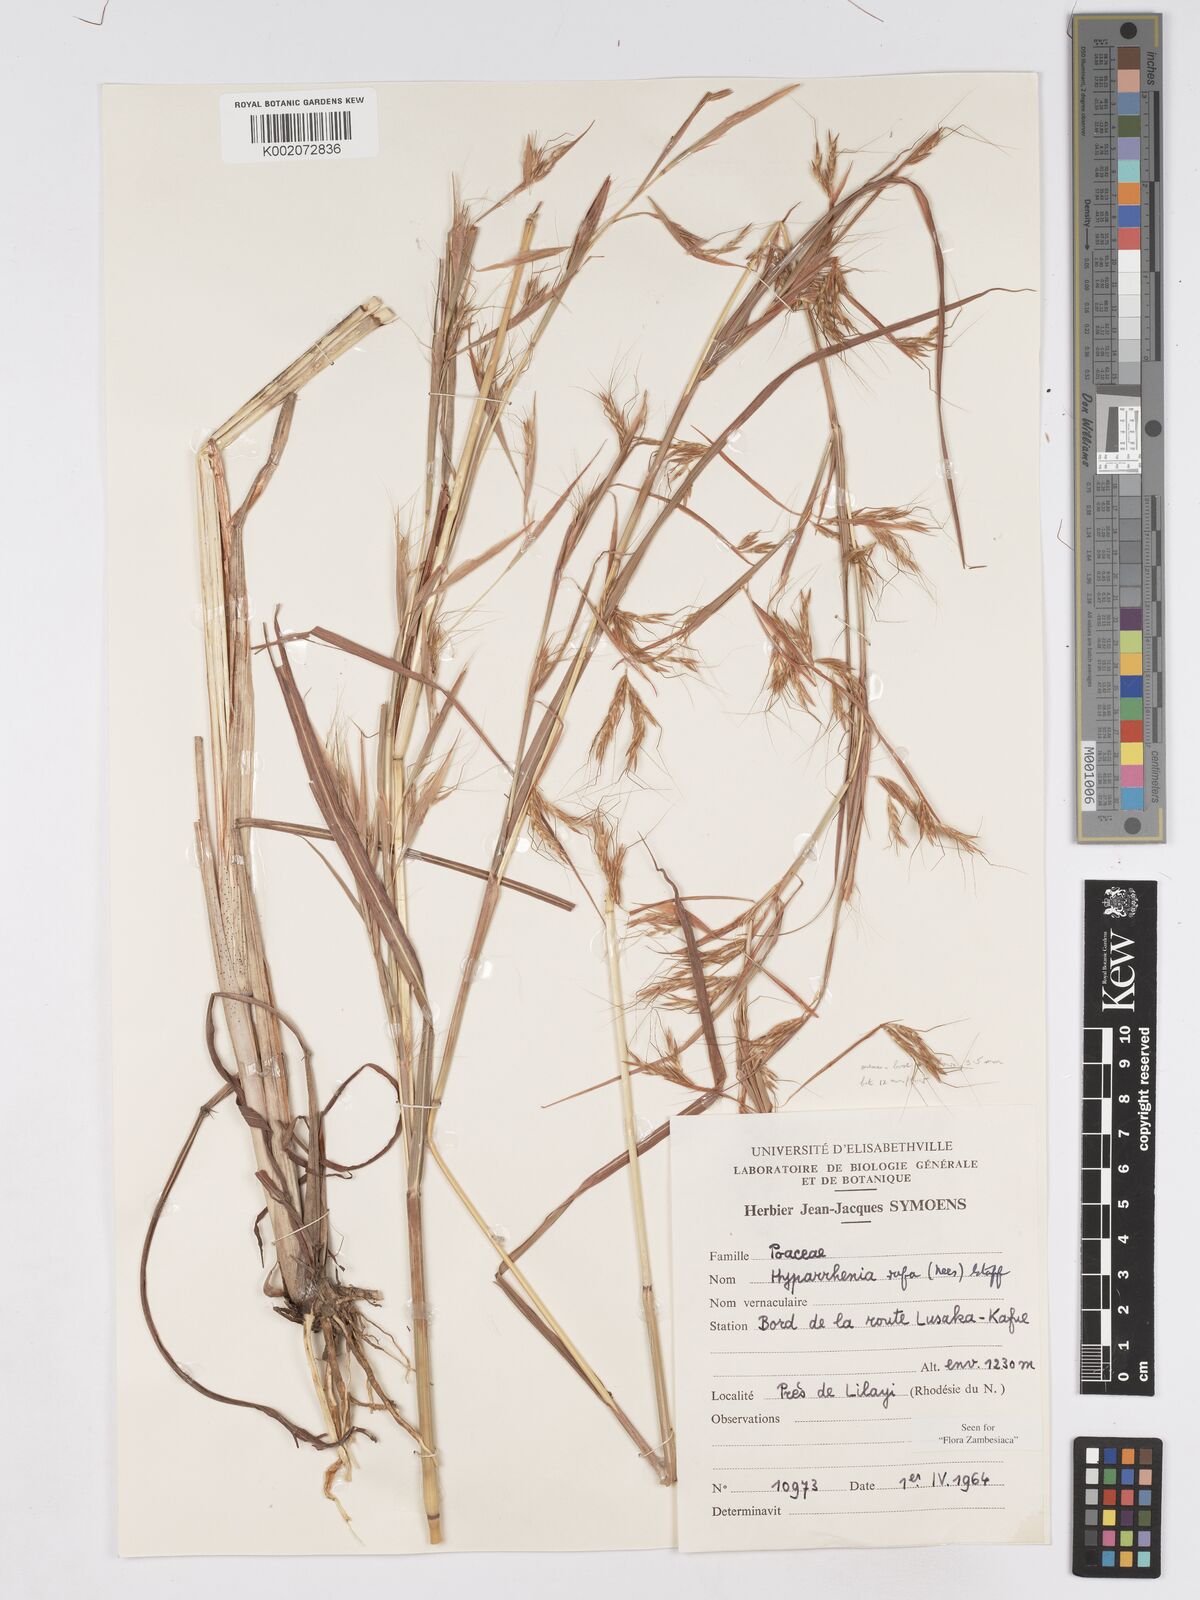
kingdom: Plantae
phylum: Tracheophyta
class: Liliopsida
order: Poales
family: Poaceae
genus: Hyparrhenia
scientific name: Hyparrhenia rufa
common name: Jaraguagrass
